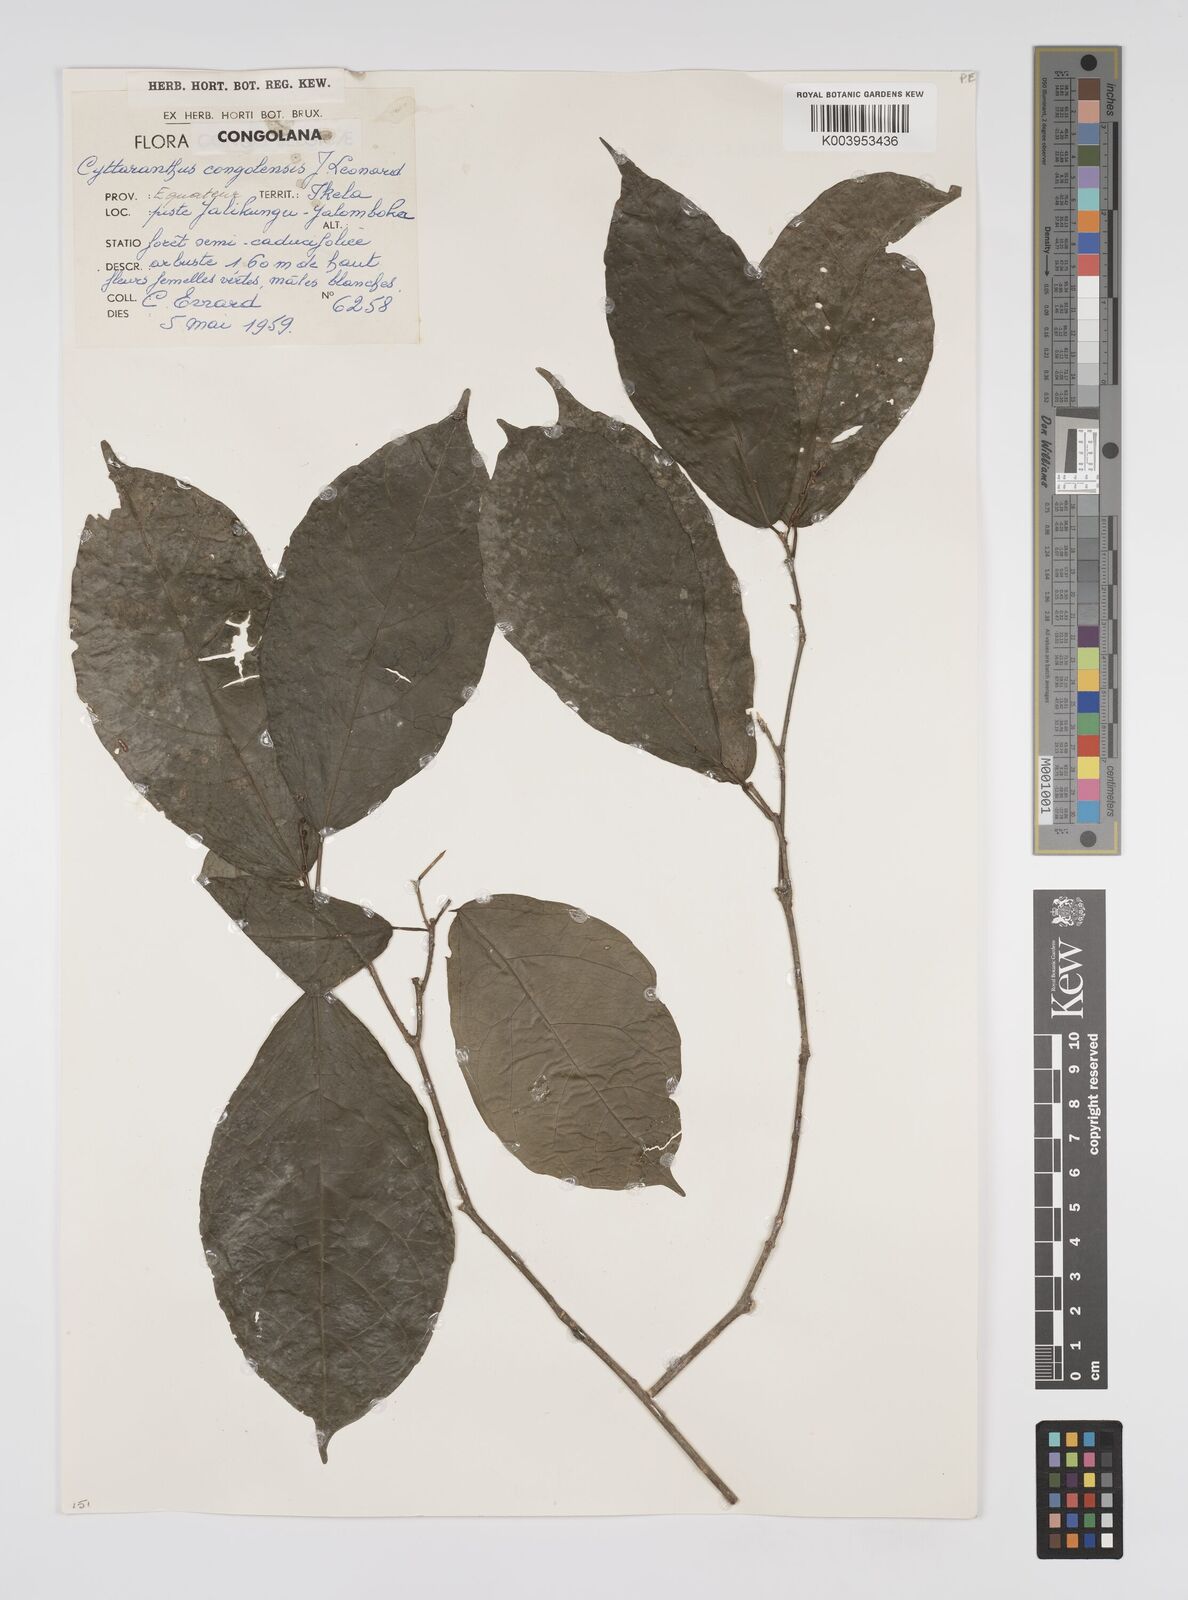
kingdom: Plantae
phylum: Tracheophyta
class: Magnoliopsida
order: Malpighiales
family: Euphorbiaceae
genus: Cyttaranthus
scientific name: Cyttaranthus congolensis
